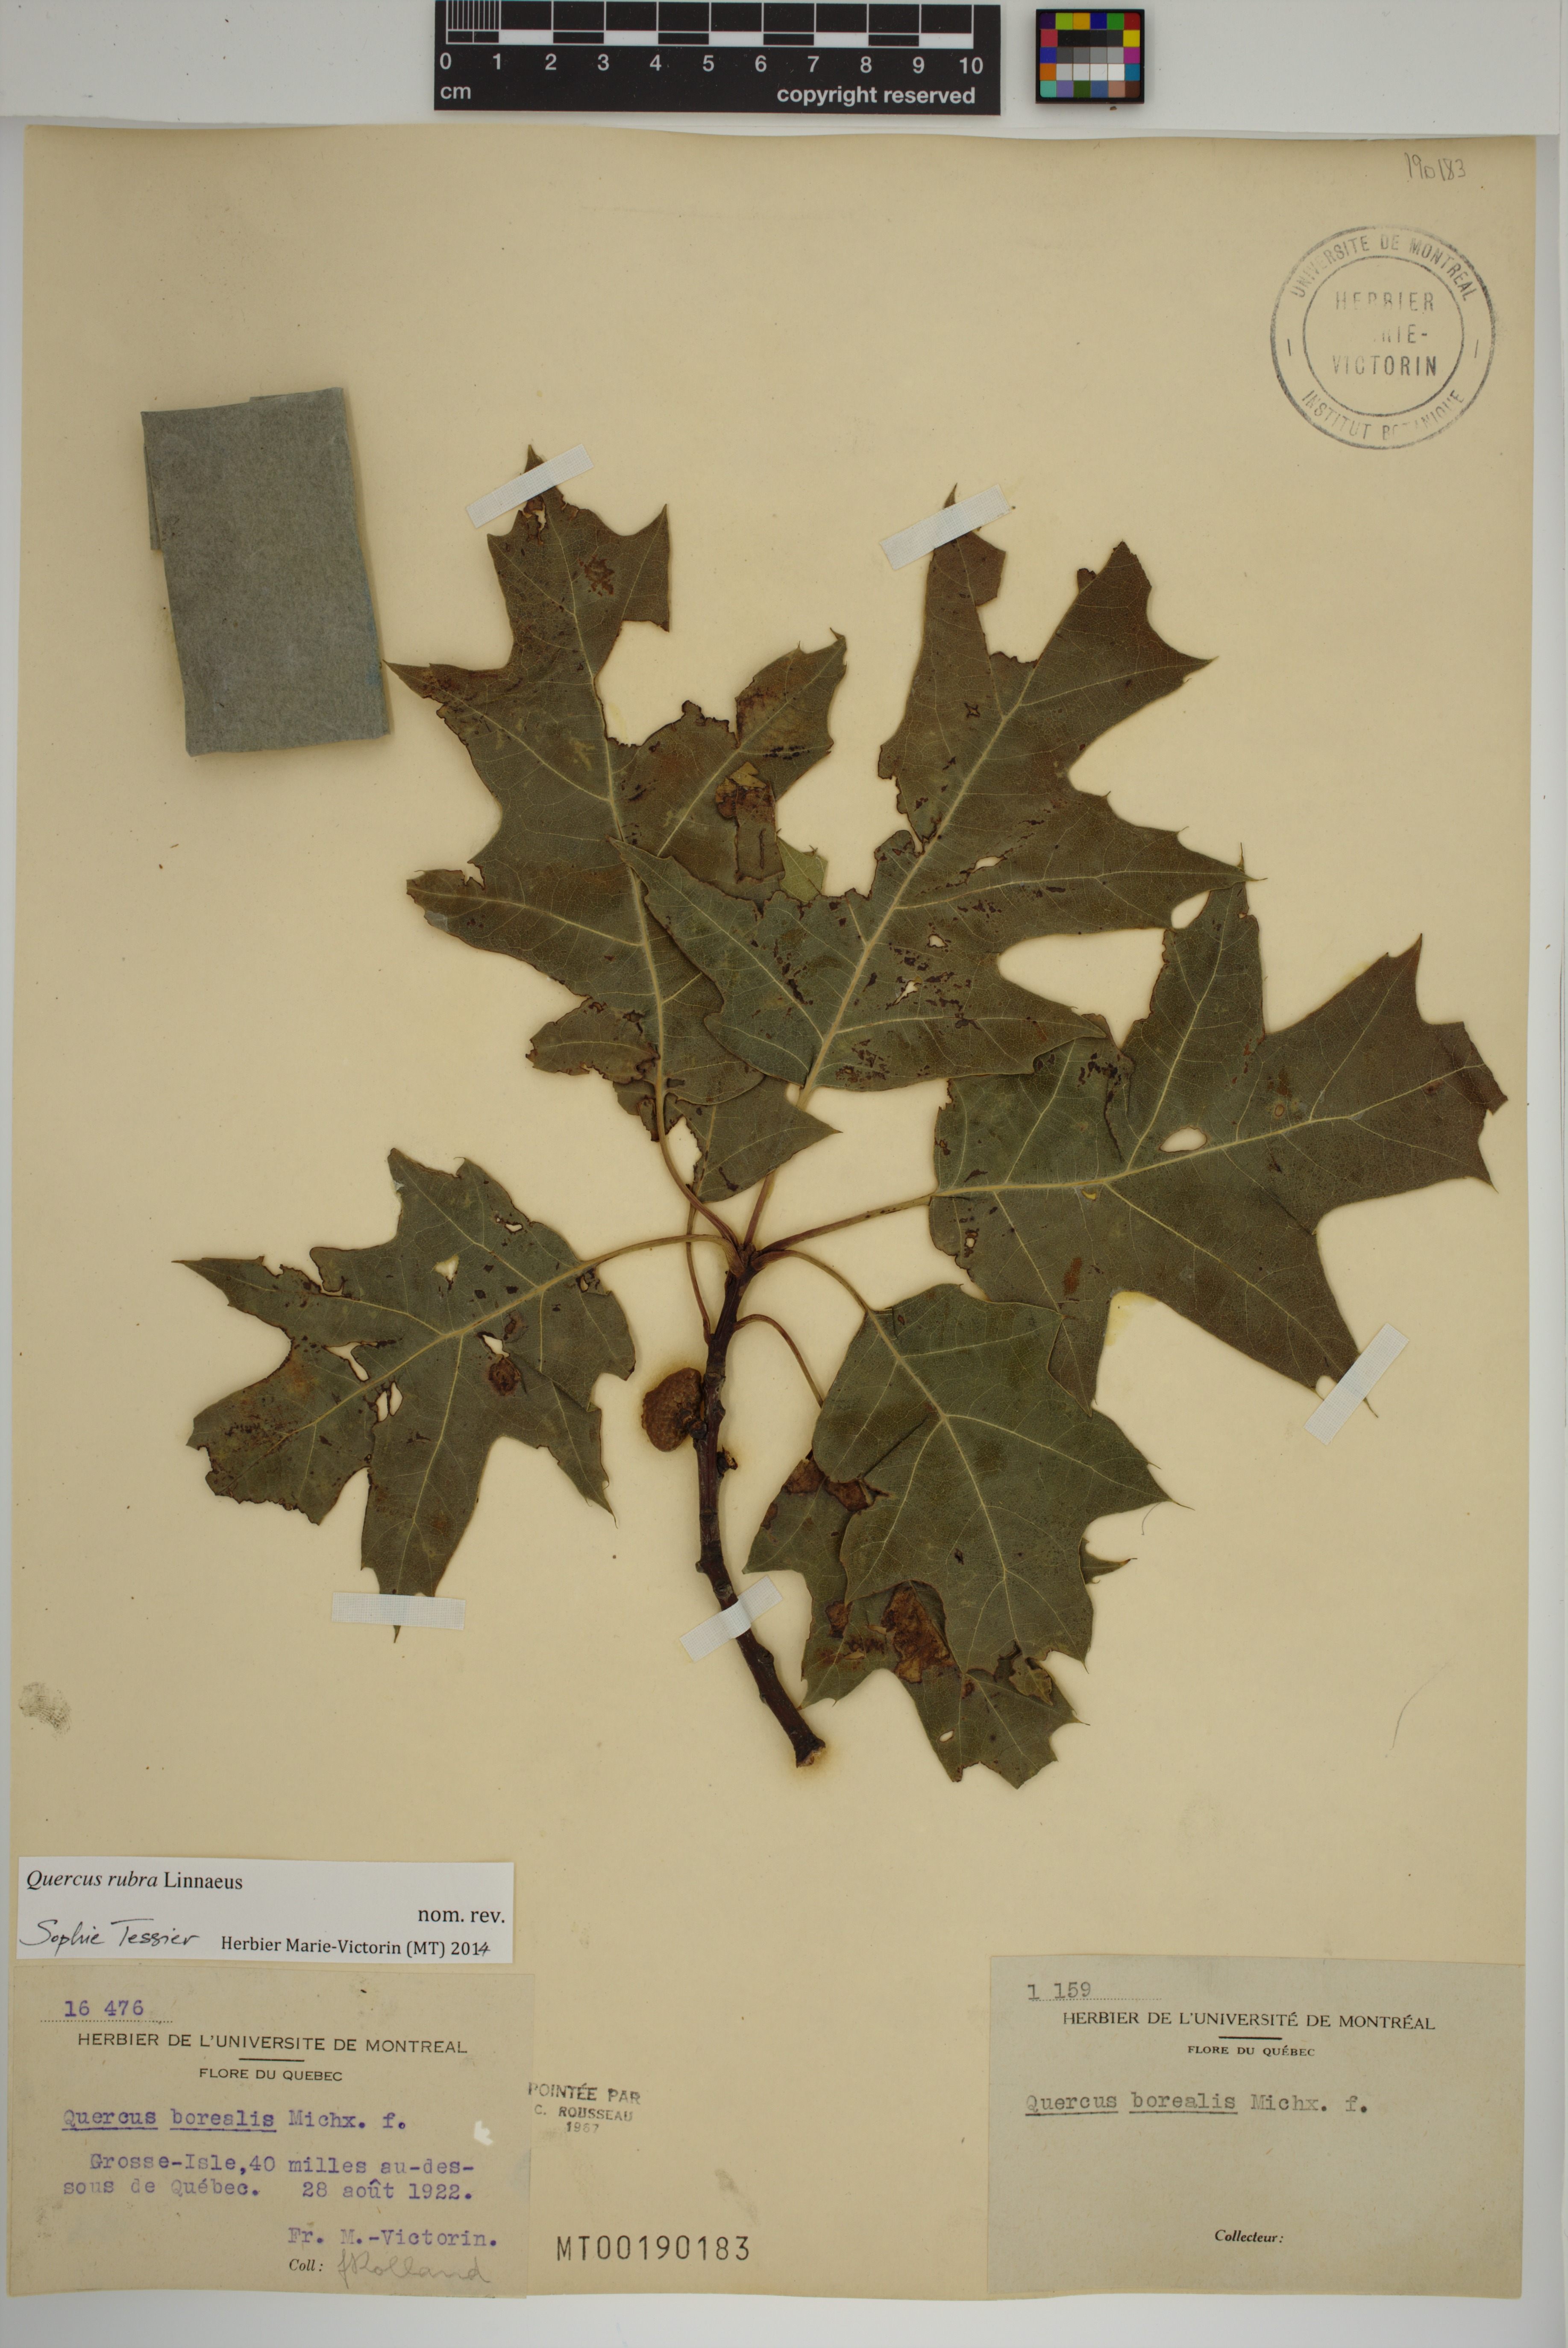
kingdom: Plantae
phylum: Tracheophyta
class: Magnoliopsida
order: Fagales
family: Fagaceae
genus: Quercus
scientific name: Quercus rubra
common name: Red oak
